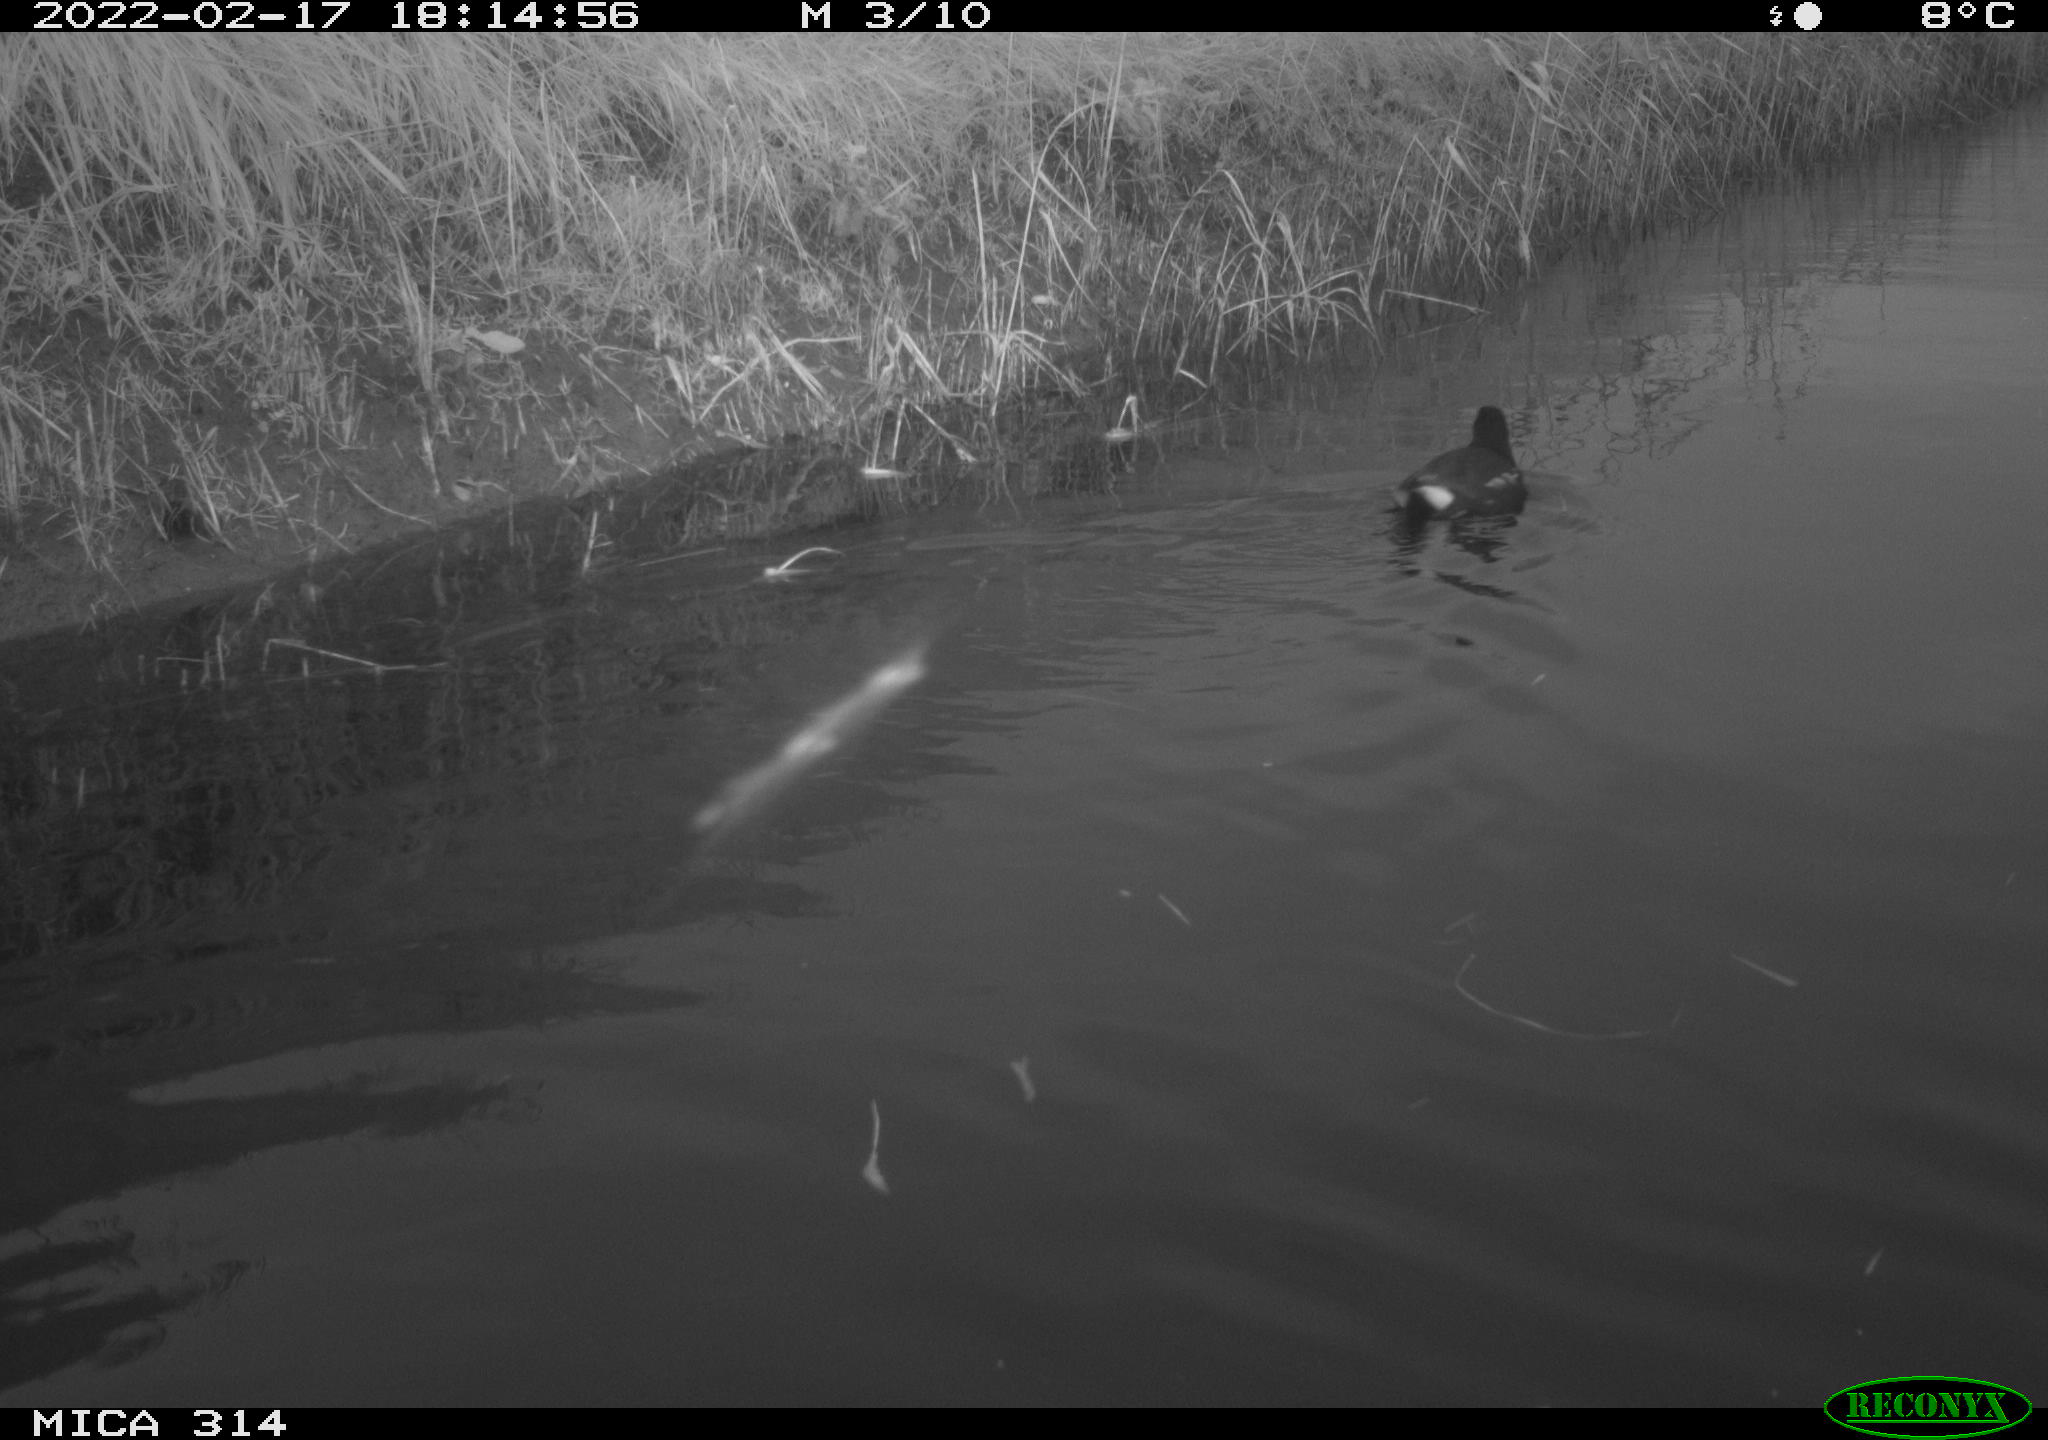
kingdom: Animalia
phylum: Chordata
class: Aves
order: Gruiformes
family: Rallidae
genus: Gallinula
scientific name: Gallinula chloropus
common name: Common moorhen
